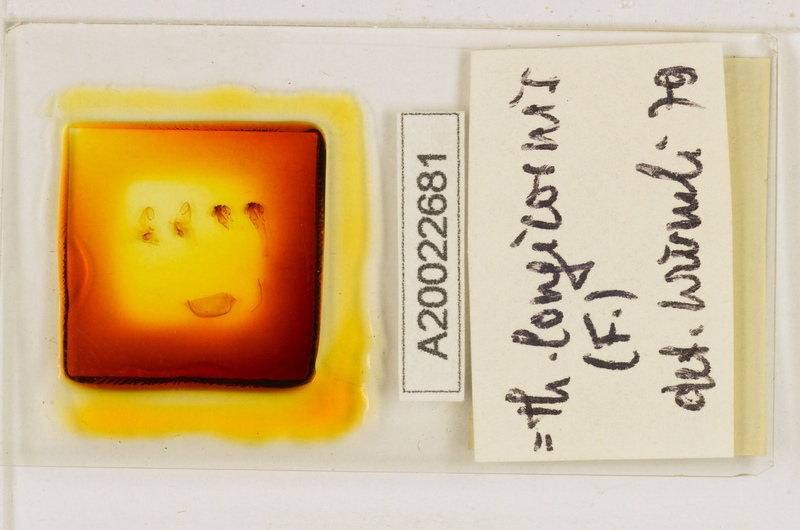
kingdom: Animalia
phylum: Arthropoda
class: Chilopoda
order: Scutigeromorpha
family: Scutigeridae
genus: Thereuopoda
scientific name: Thereuopoda longicornis
